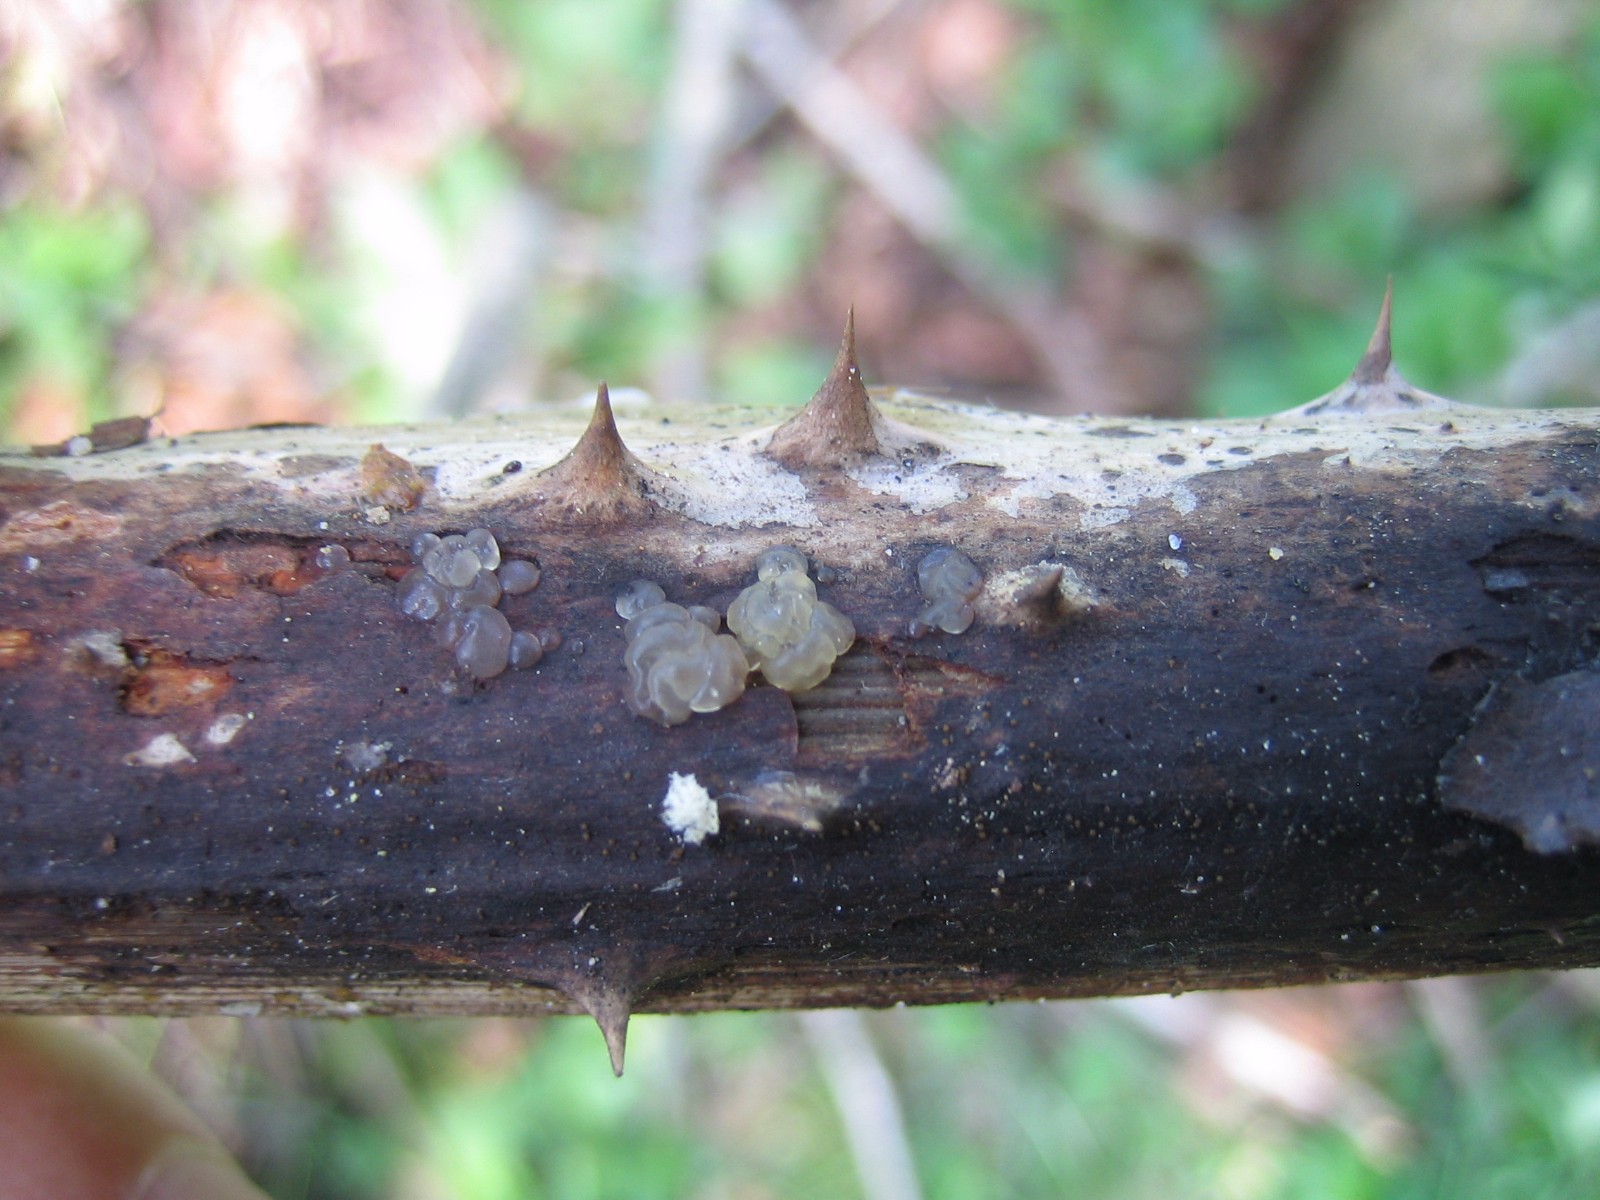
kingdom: Fungi
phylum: Basidiomycota
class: Tremellomycetes
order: Tremellales
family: Exidiaceae
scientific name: Exidiaceae
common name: bævretopfamilien
